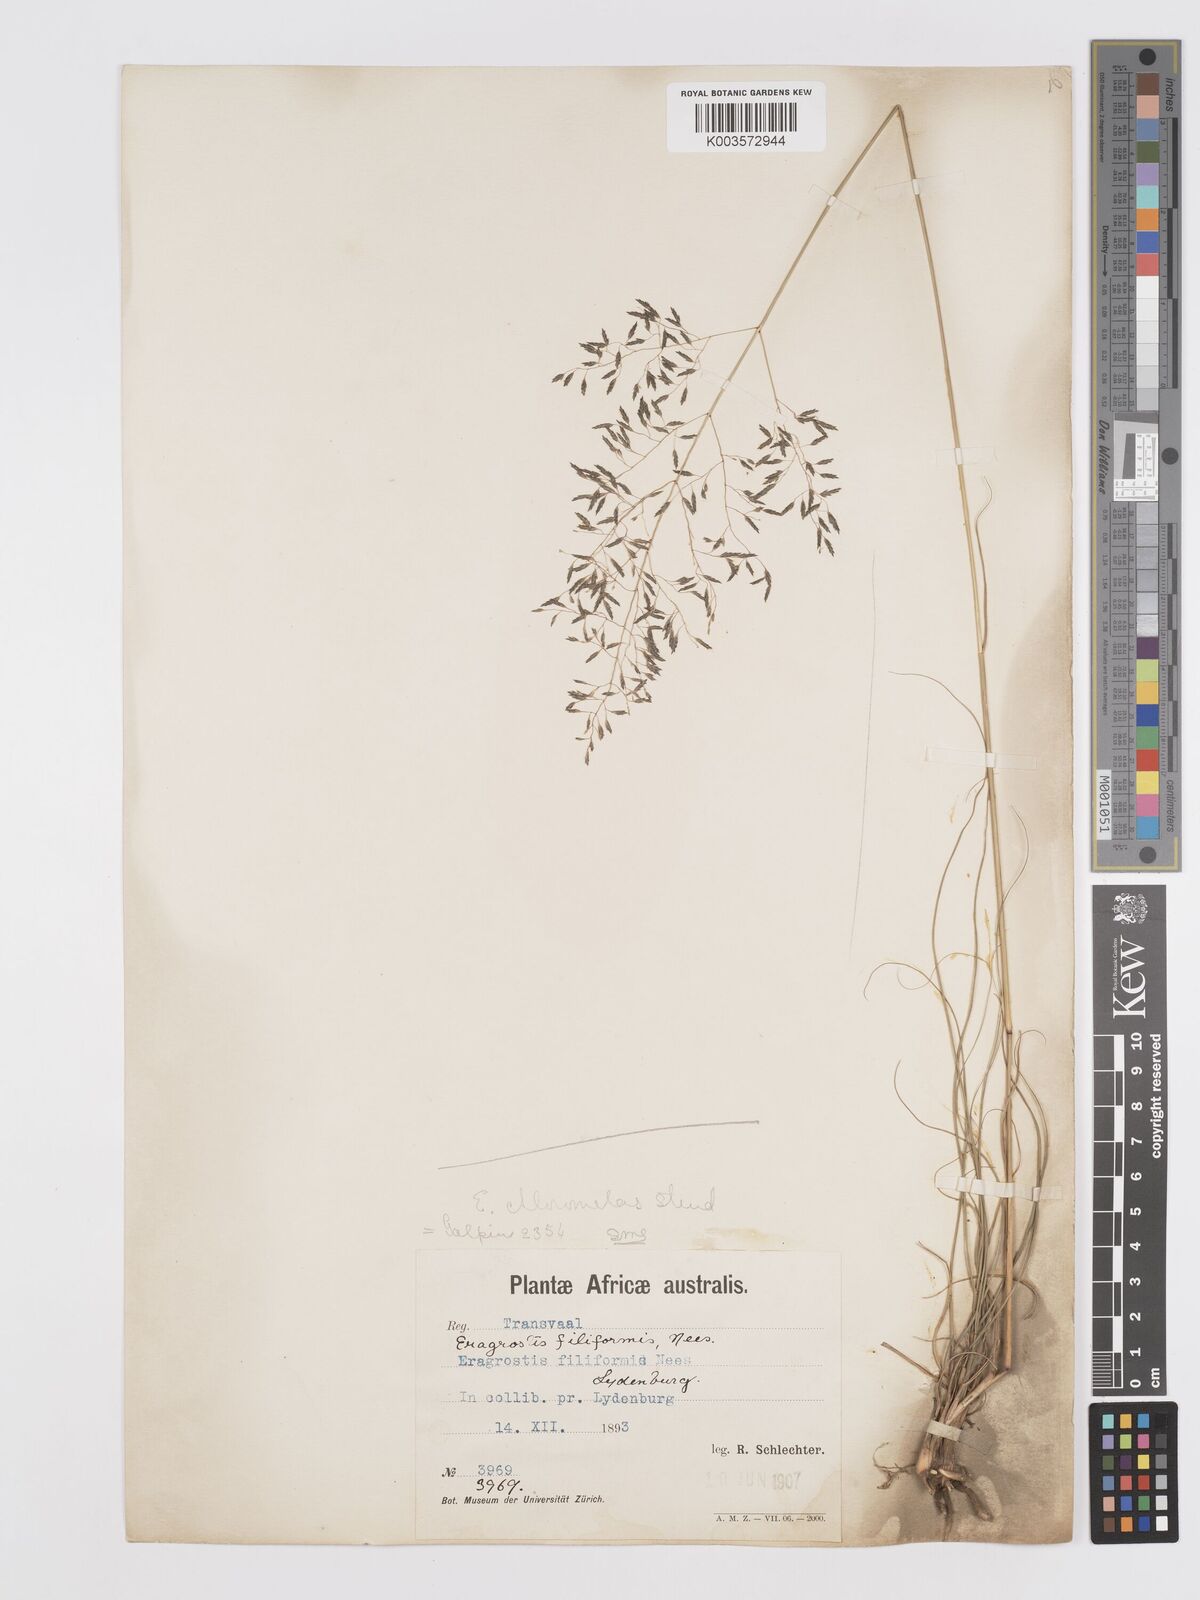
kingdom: Plantae
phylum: Tracheophyta
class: Liliopsida
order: Poales
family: Poaceae
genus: Eragrostis
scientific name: Eragrostis curvula
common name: African love-grass
